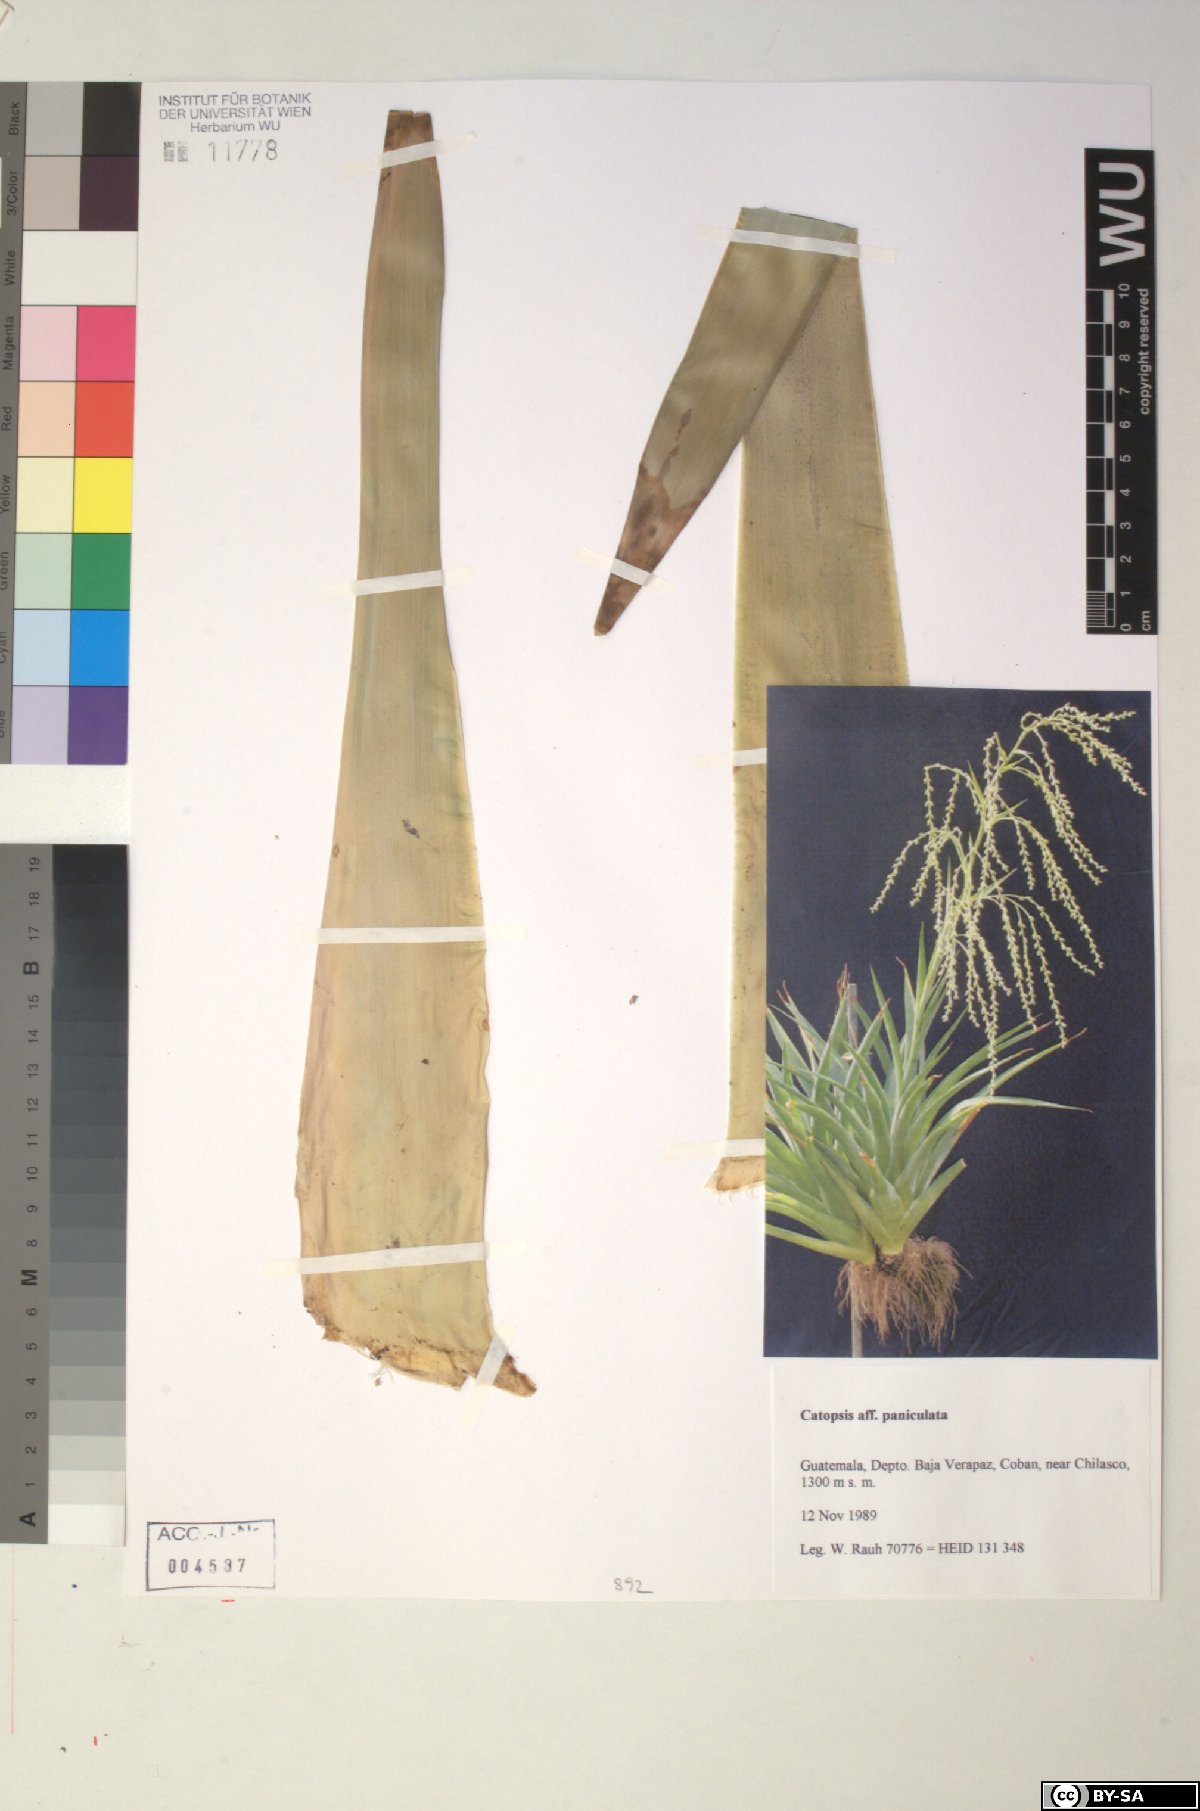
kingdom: Plantae
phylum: Tracheophyta
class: Liliopsida
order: Poales
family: Bromeliaceae
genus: Catopsis
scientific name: Catopsis paniculata
